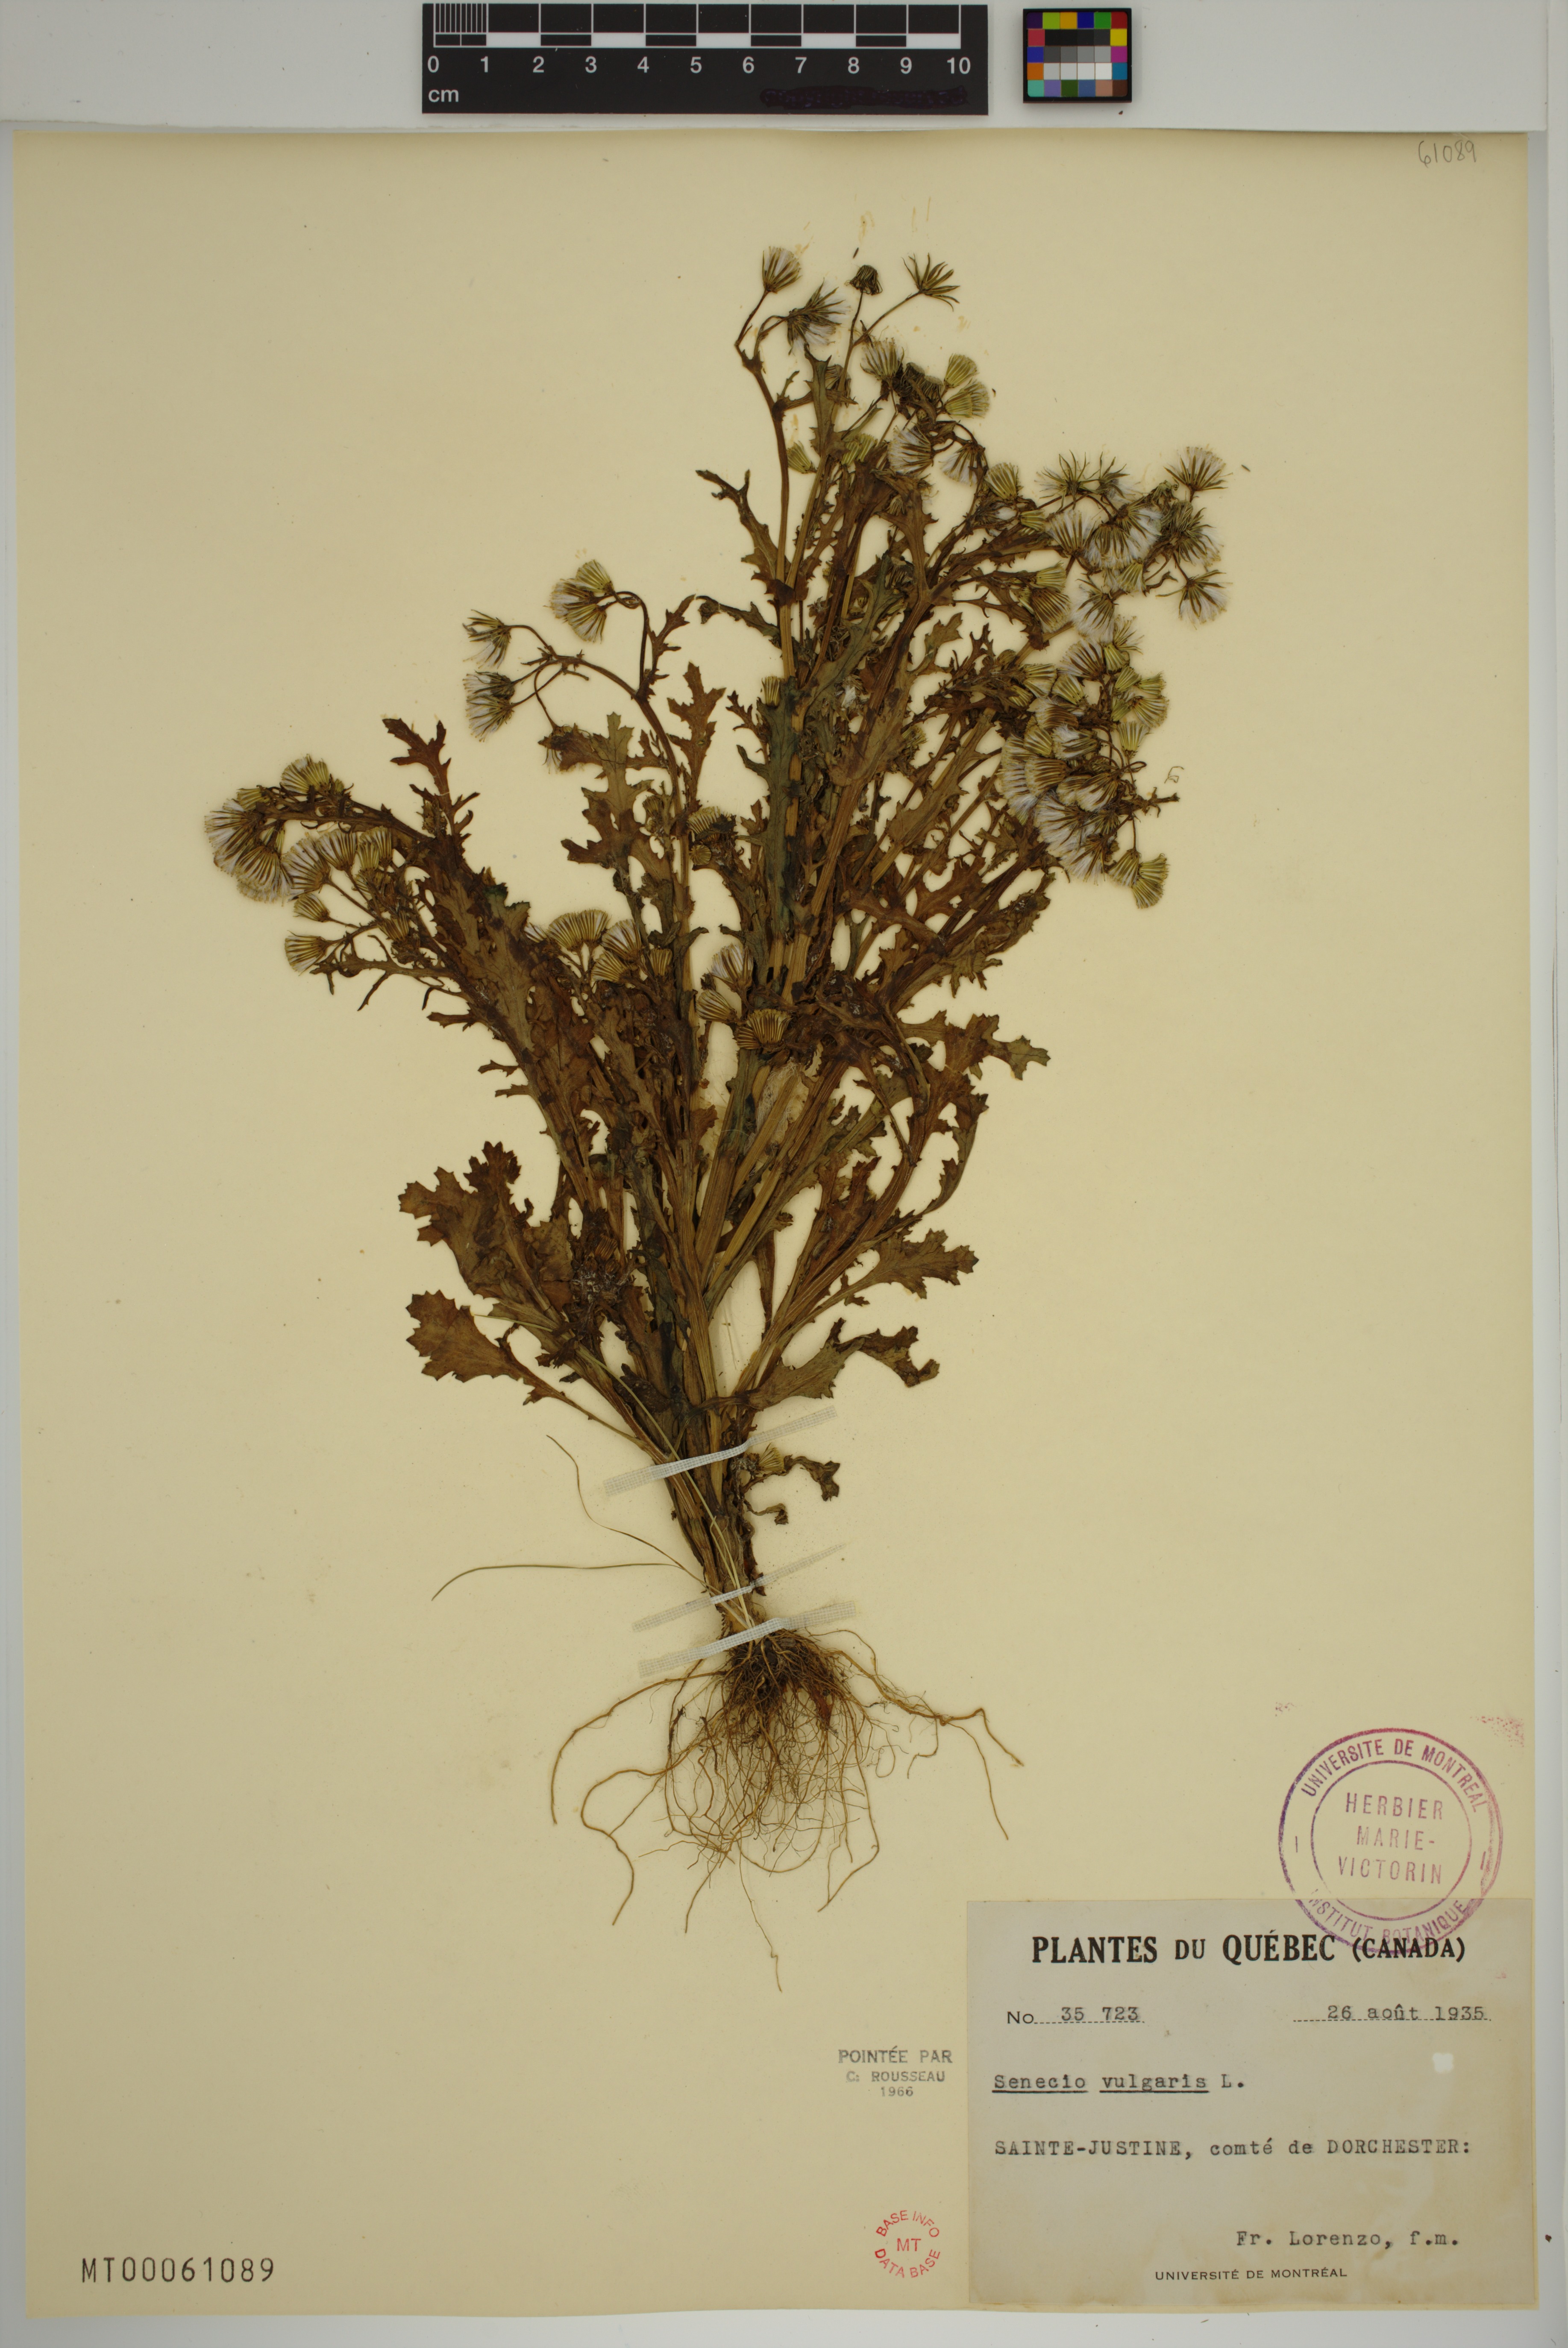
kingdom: Plantae
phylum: Tracheophyta
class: Magnoliopsida
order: Asterales
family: Asteraceae
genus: Senecio
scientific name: Senecio vulgaris
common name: Old-man-in-the-spring
